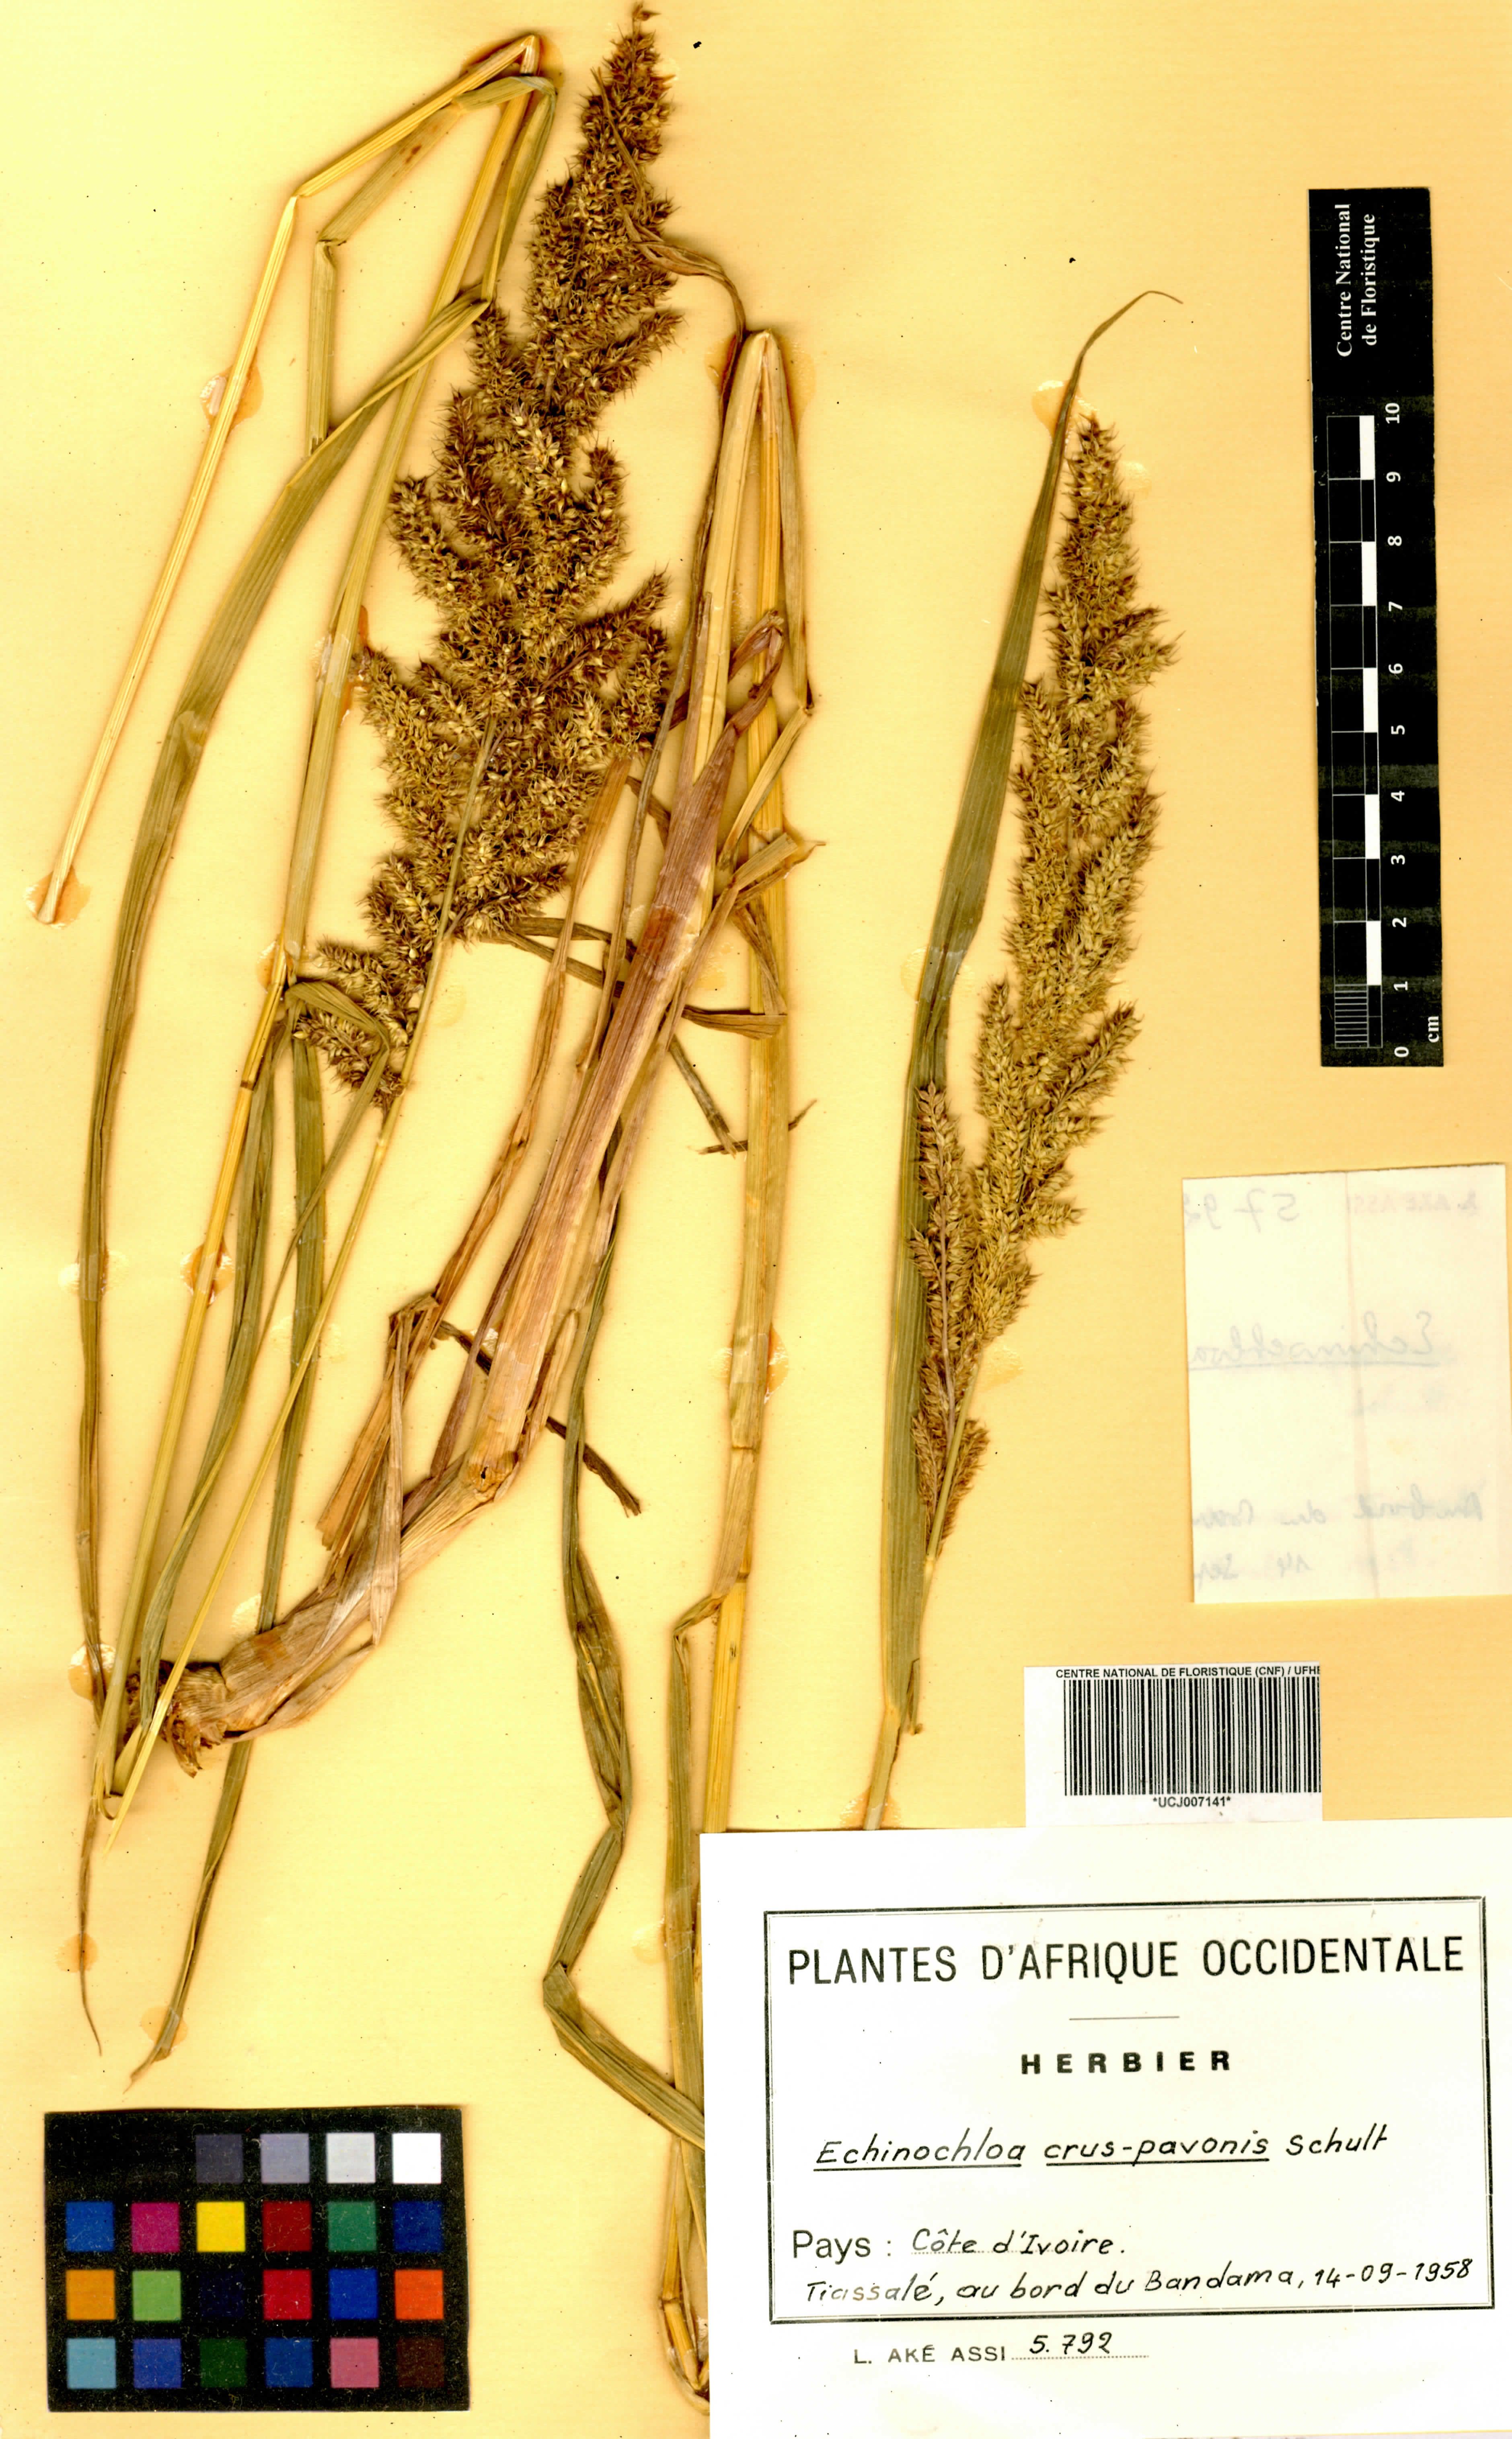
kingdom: Plantae
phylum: Tracheophyta
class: Liliopsida
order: Poales
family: Poaceae
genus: Echinochloa
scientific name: Echinochloa crus-pavonis
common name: Gulf cockspur grass
